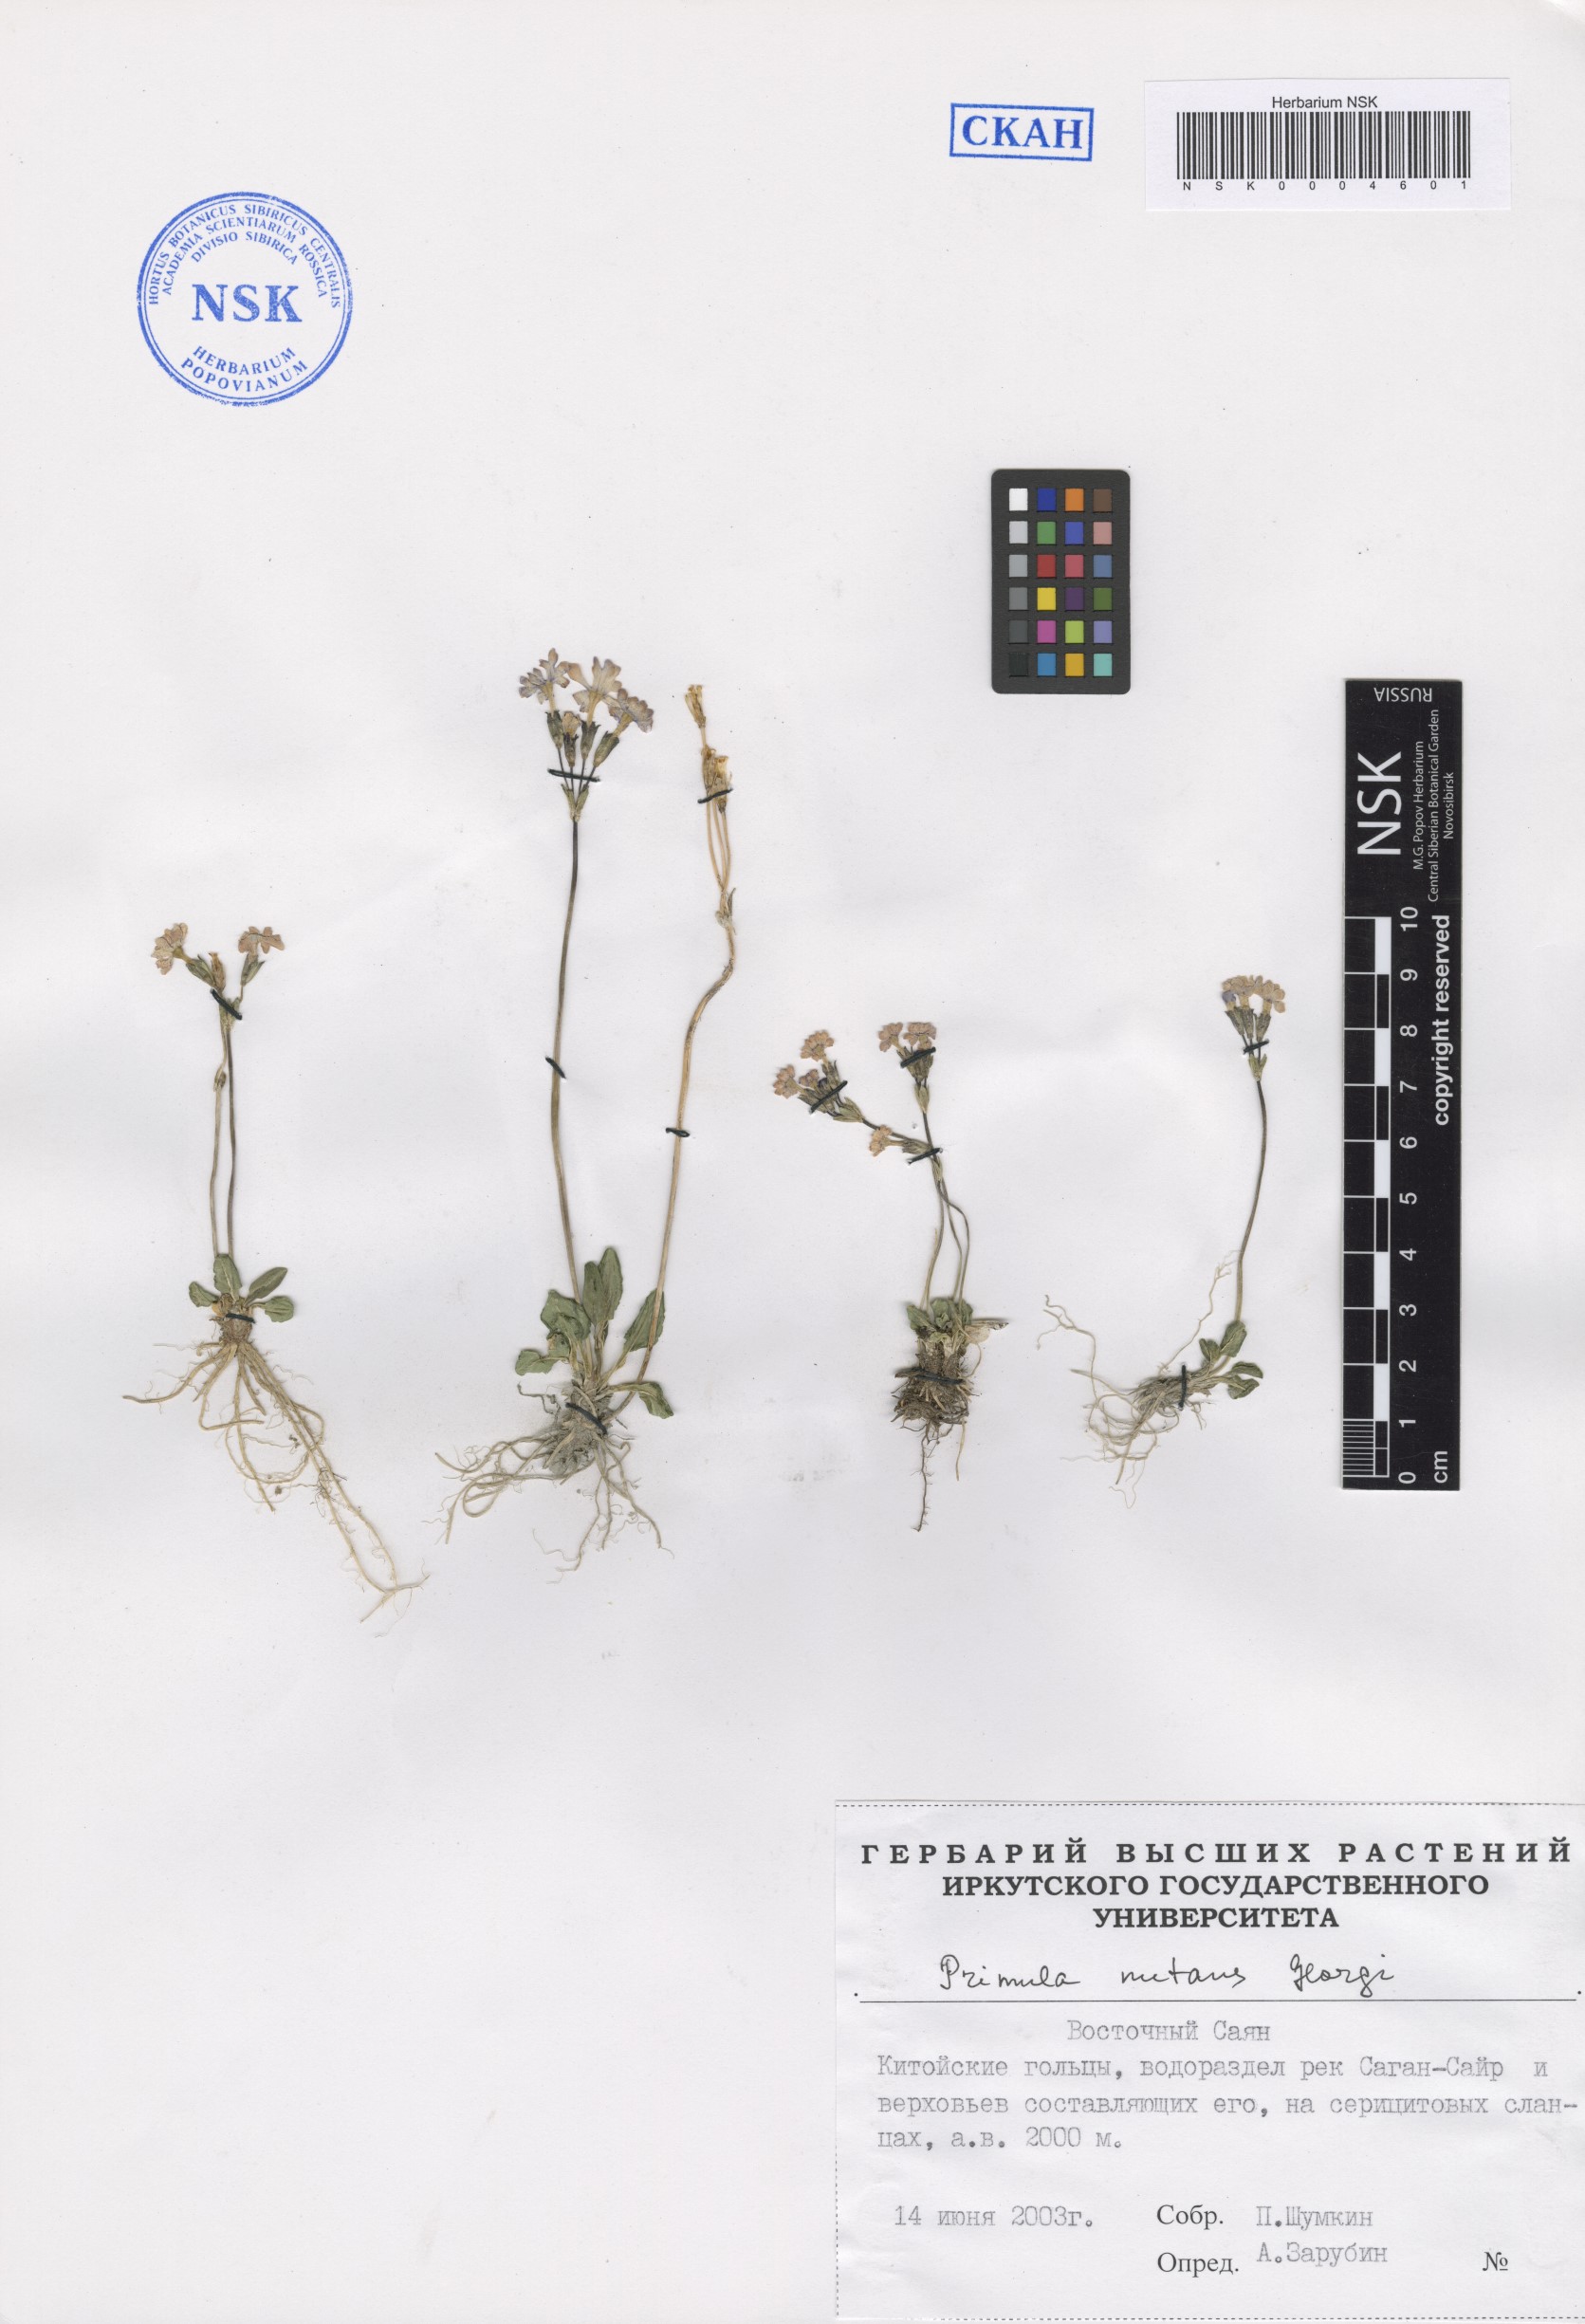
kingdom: Plantae
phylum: Tracheophyta
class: Magnoliopsida
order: Ericales
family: Primulaceae
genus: Primula
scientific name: Primula nutans
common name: Siberian primrose
